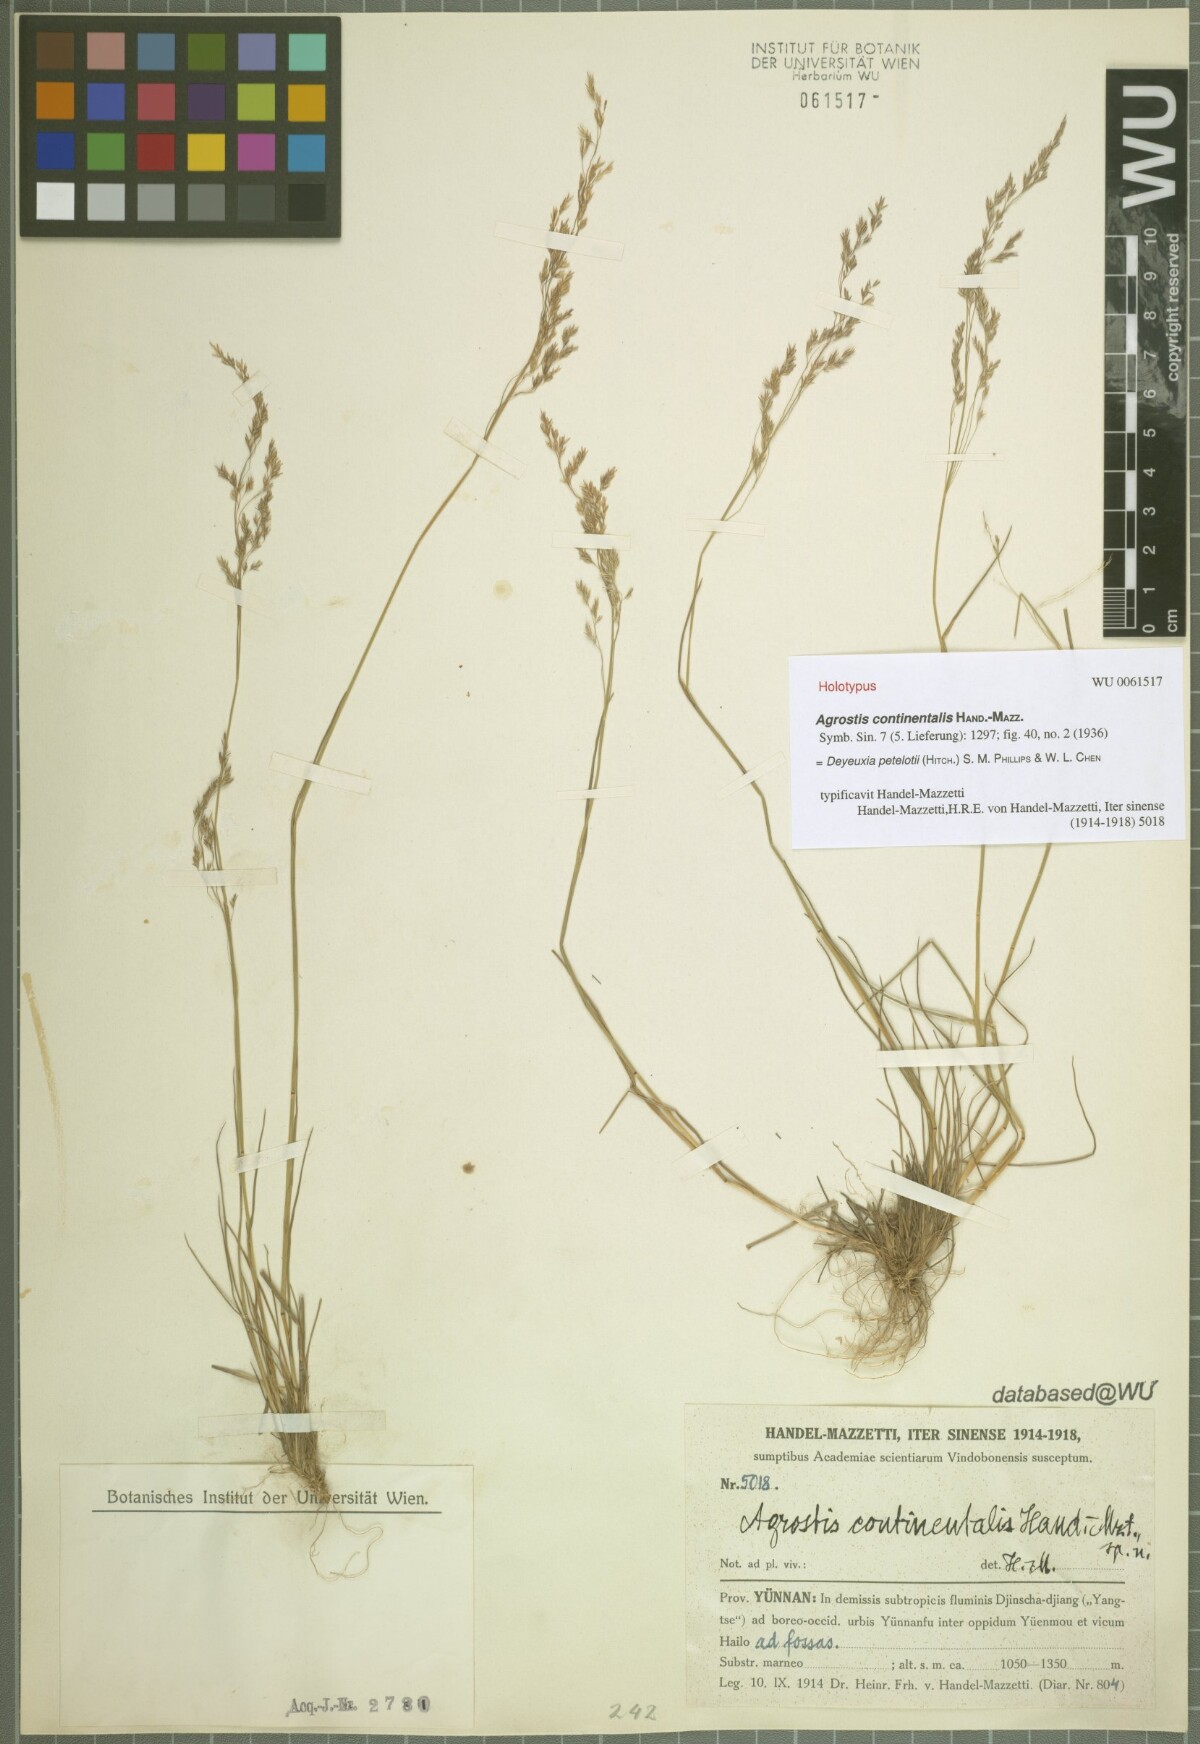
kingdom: Plantae
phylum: Tracheophyta
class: Liliopsida
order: Poales
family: Poaceae
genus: Calamagrostis
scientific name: Calamagrostis abnormis
